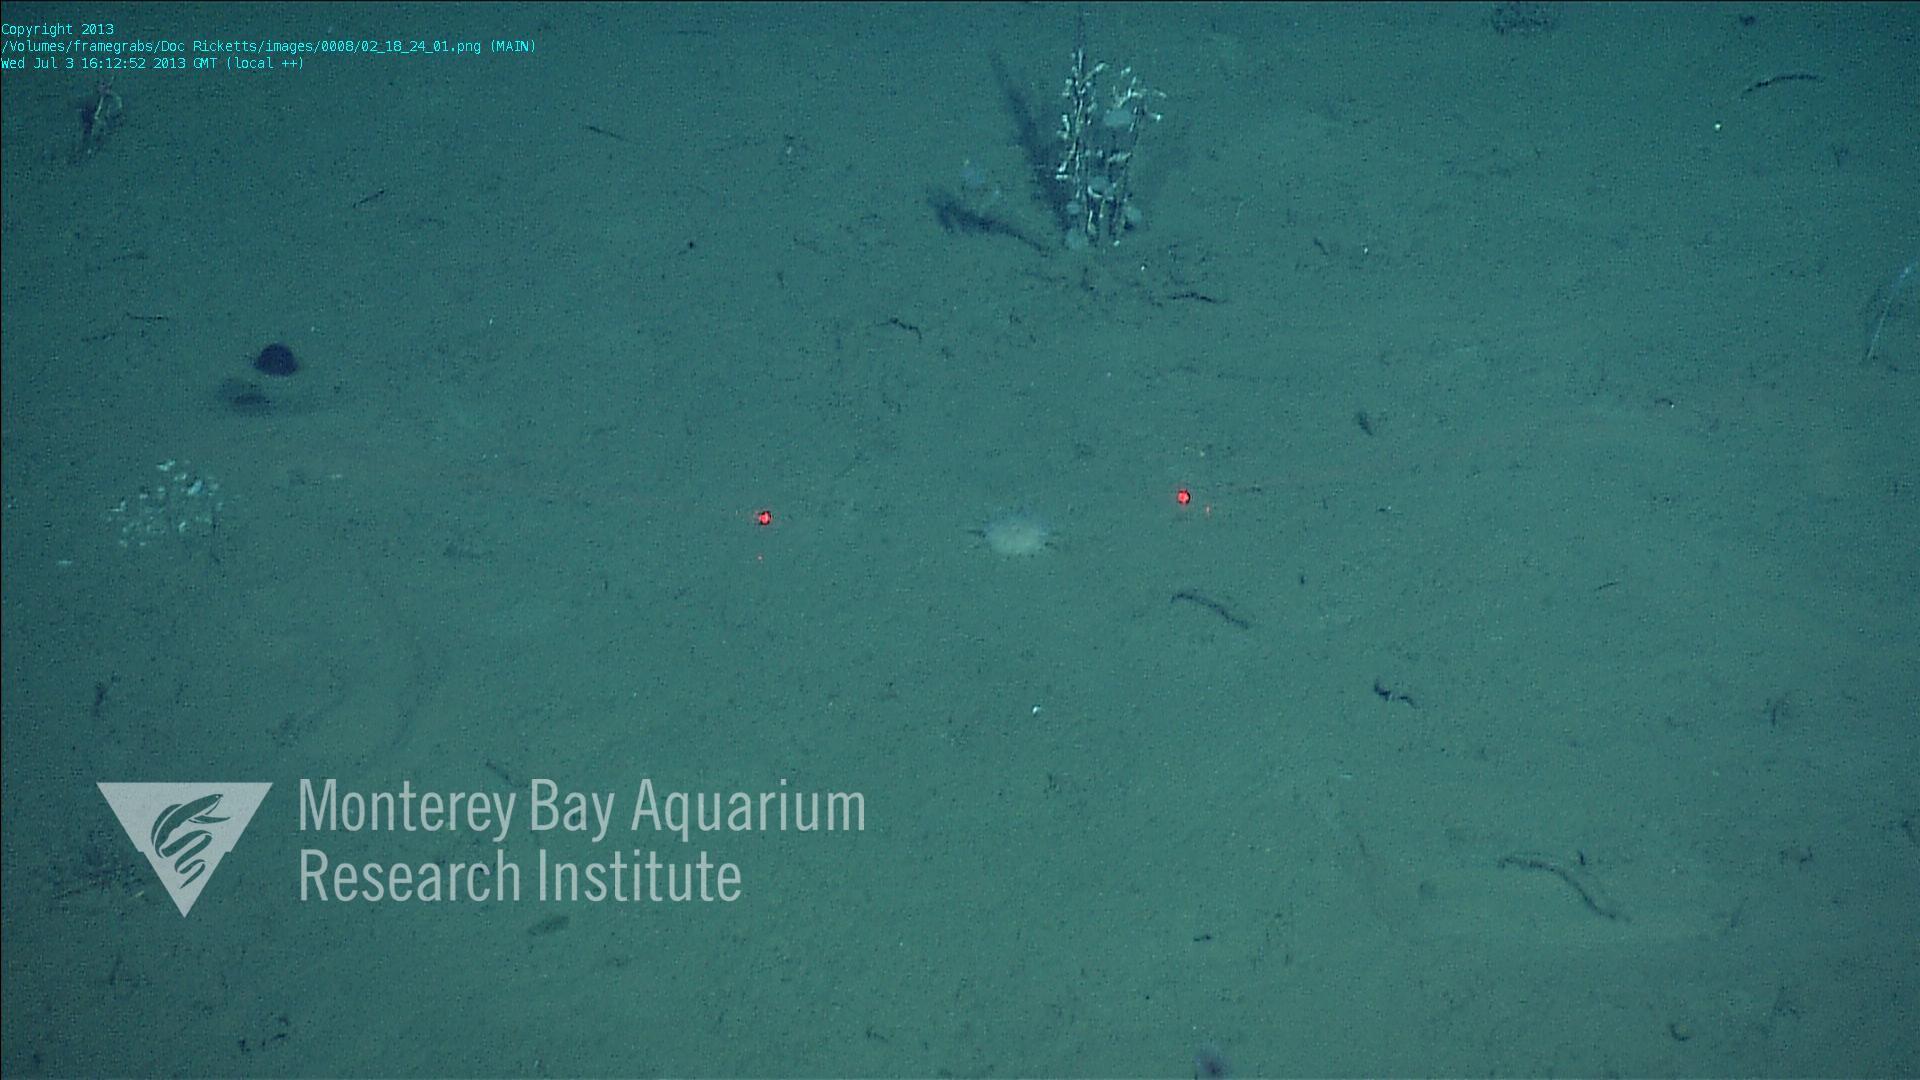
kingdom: Animalia
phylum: Porifera
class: Hexactinellida
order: Lyssacinosida
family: Rossellidae
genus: Bathydorus
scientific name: Bathydorus spinosus
